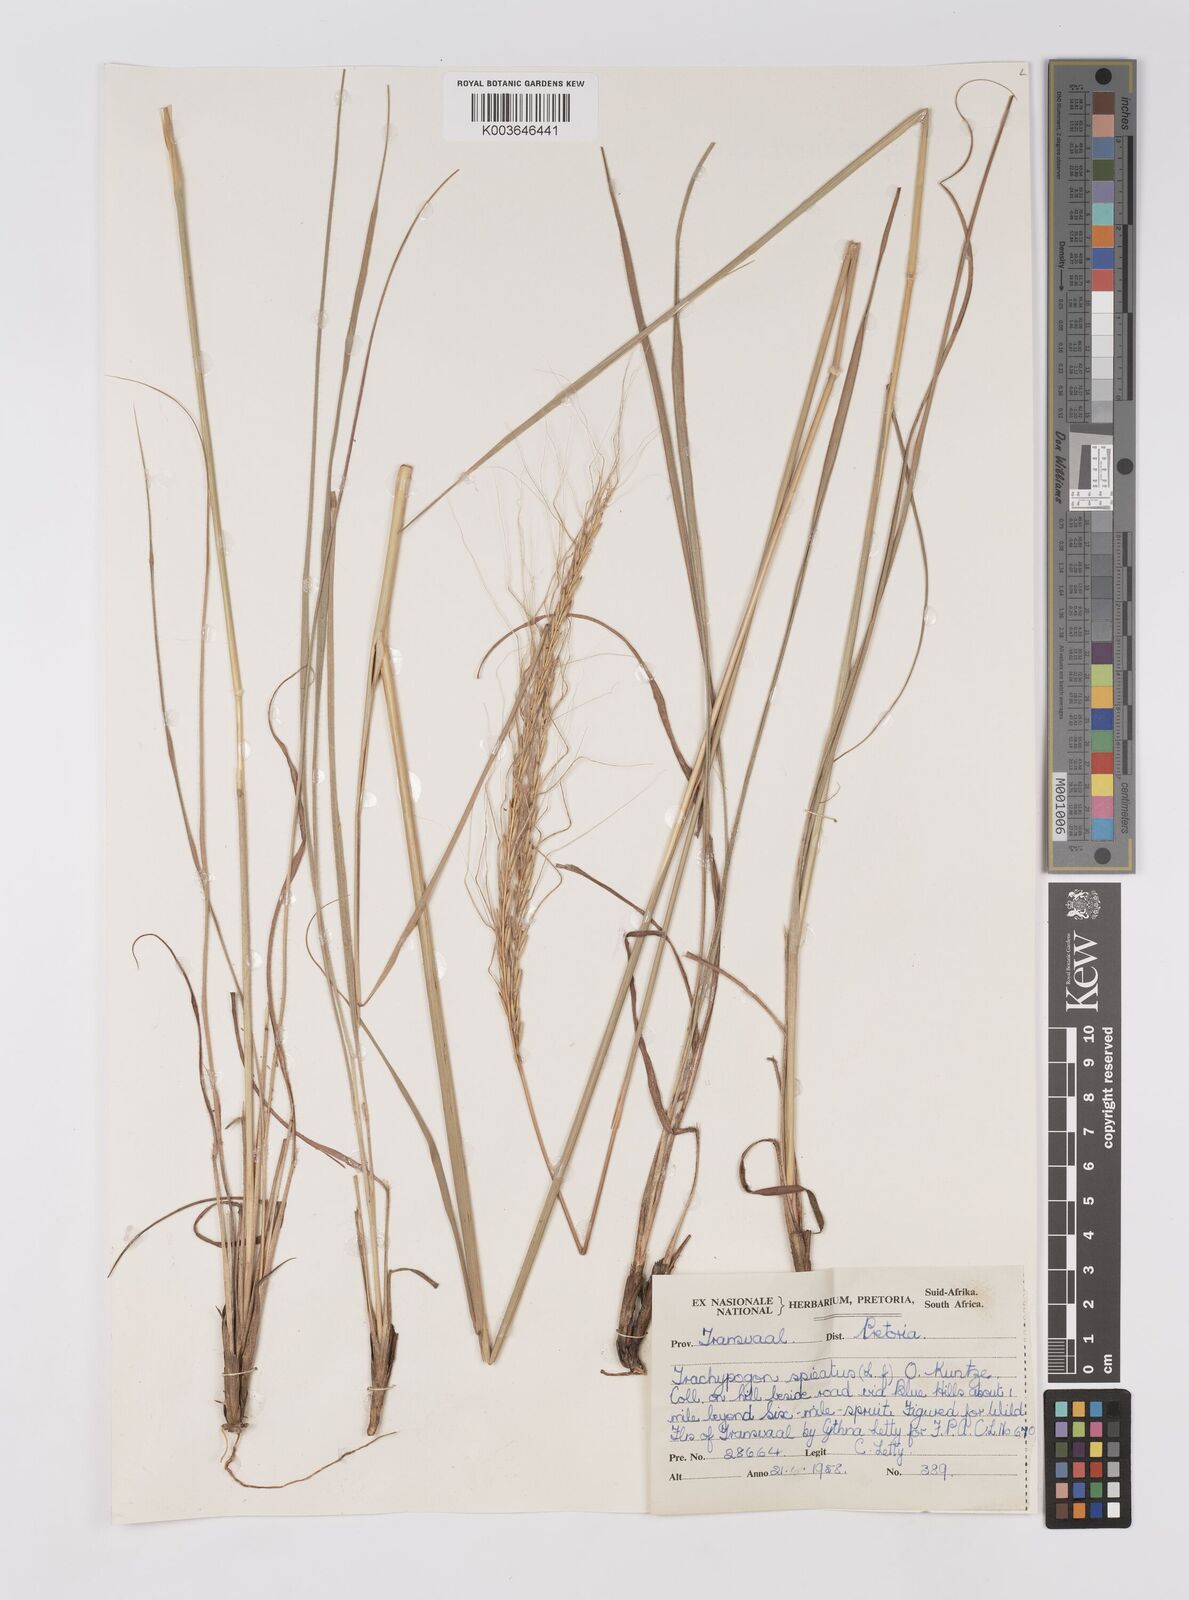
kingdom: Plantae
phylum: Tracheophyta
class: Liliopsida
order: Poales
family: Poaceae
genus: Trachypogon
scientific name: Trachypogon spicatus
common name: Crinkle-awn
